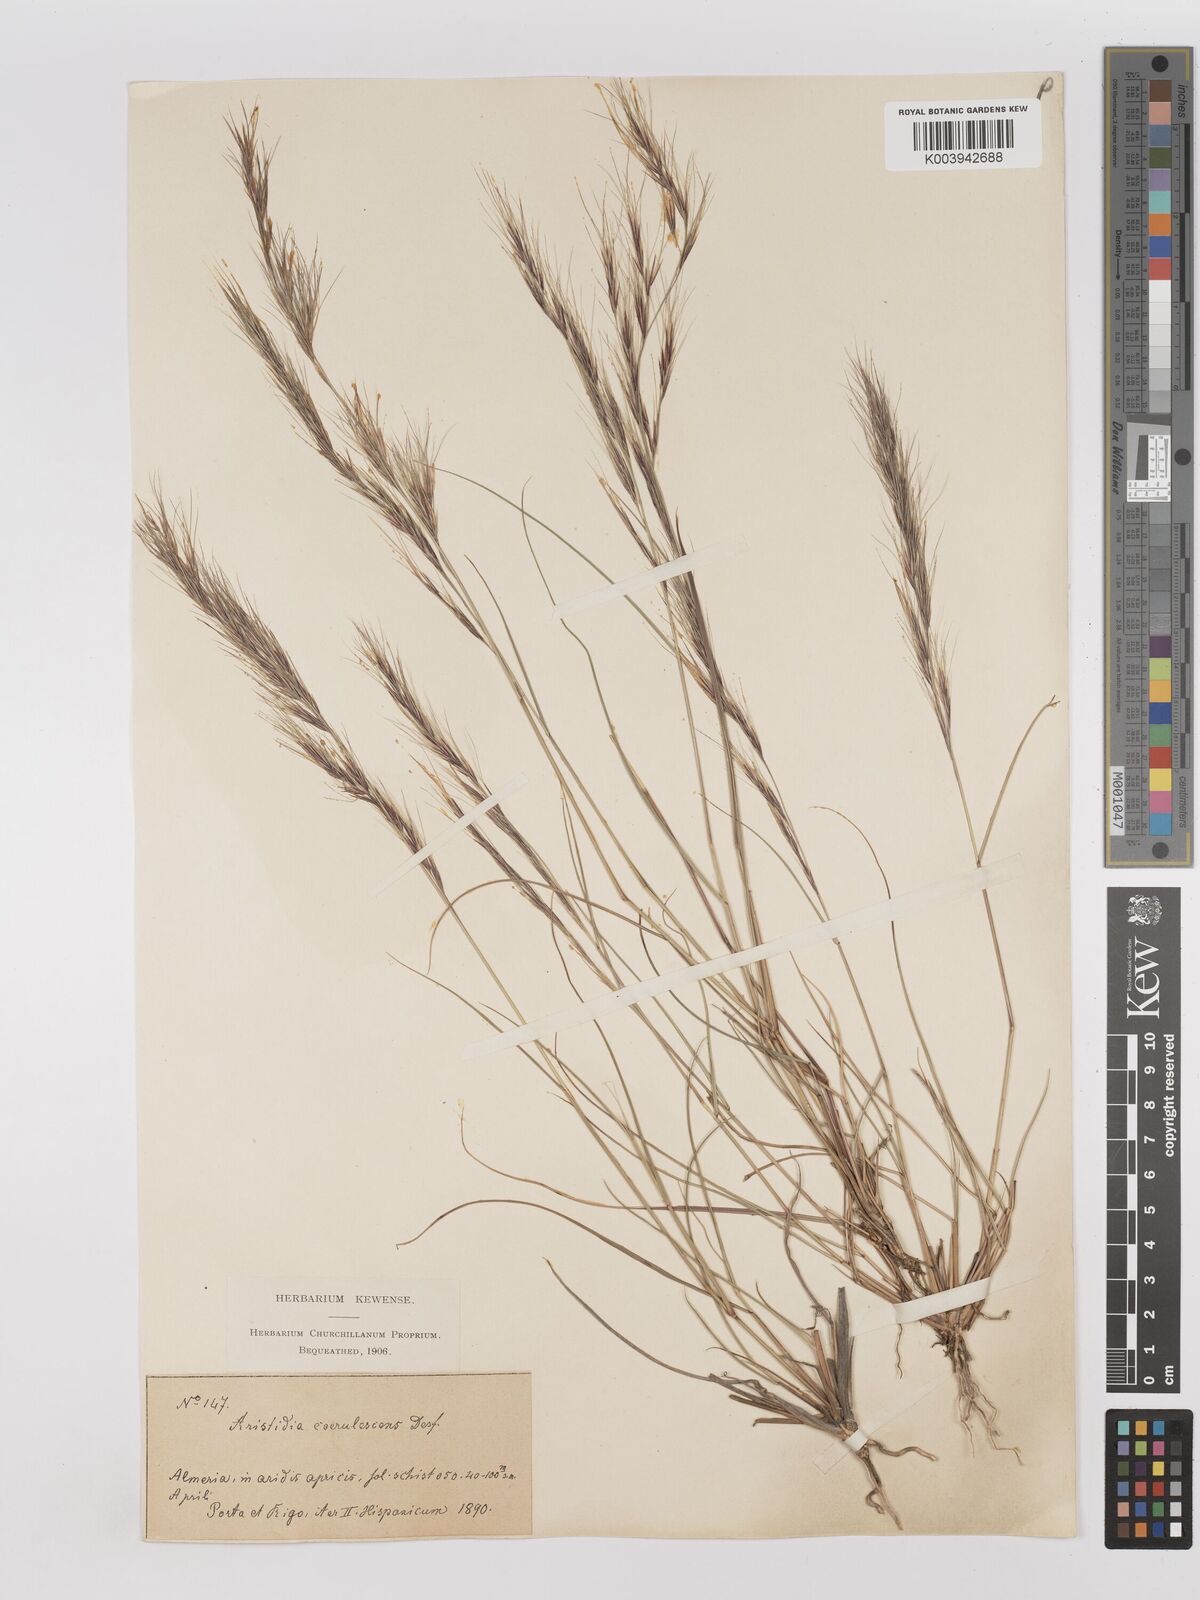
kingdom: Plantae
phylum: Tracheophyta
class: Liliopsida
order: Poales
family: Poaceae
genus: Aristida
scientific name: Aristida adscensionis
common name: Sixweeks threeawn
